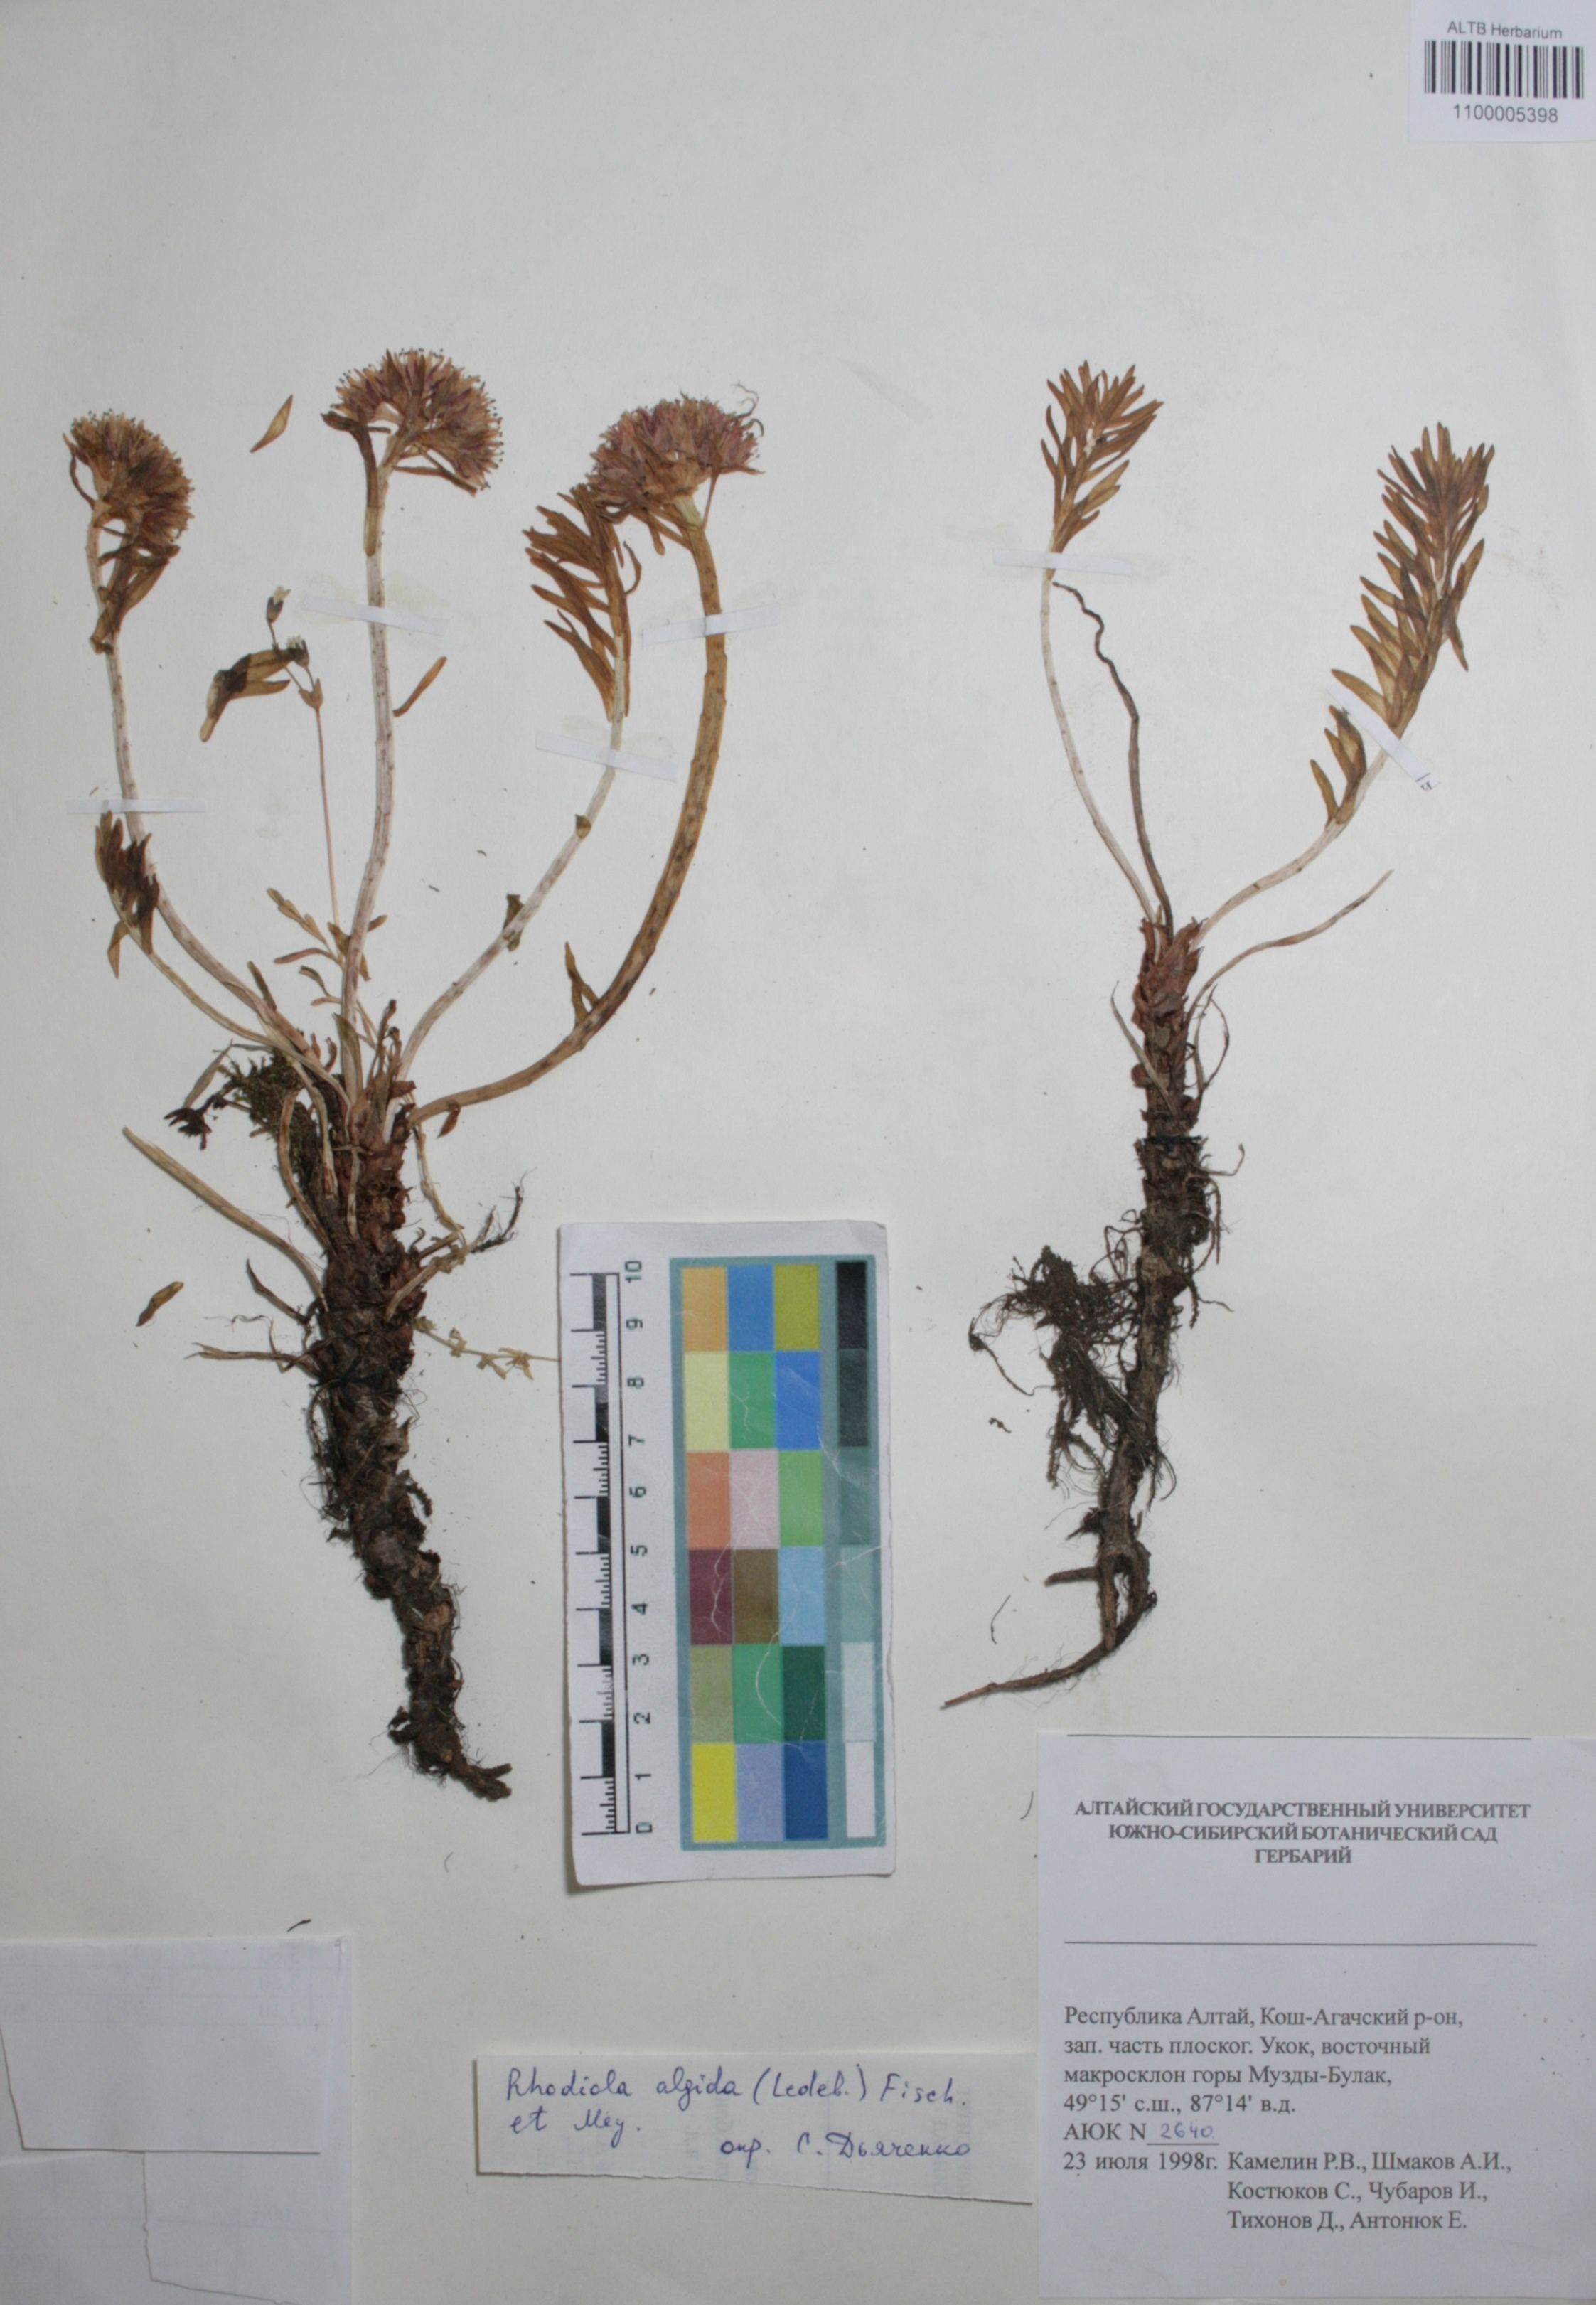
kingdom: Plantae
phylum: Tracheophyta
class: Magnoliopsida
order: Saxifragales
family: Crassulaceae
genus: Rhodiola
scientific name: Rhodiola algida
